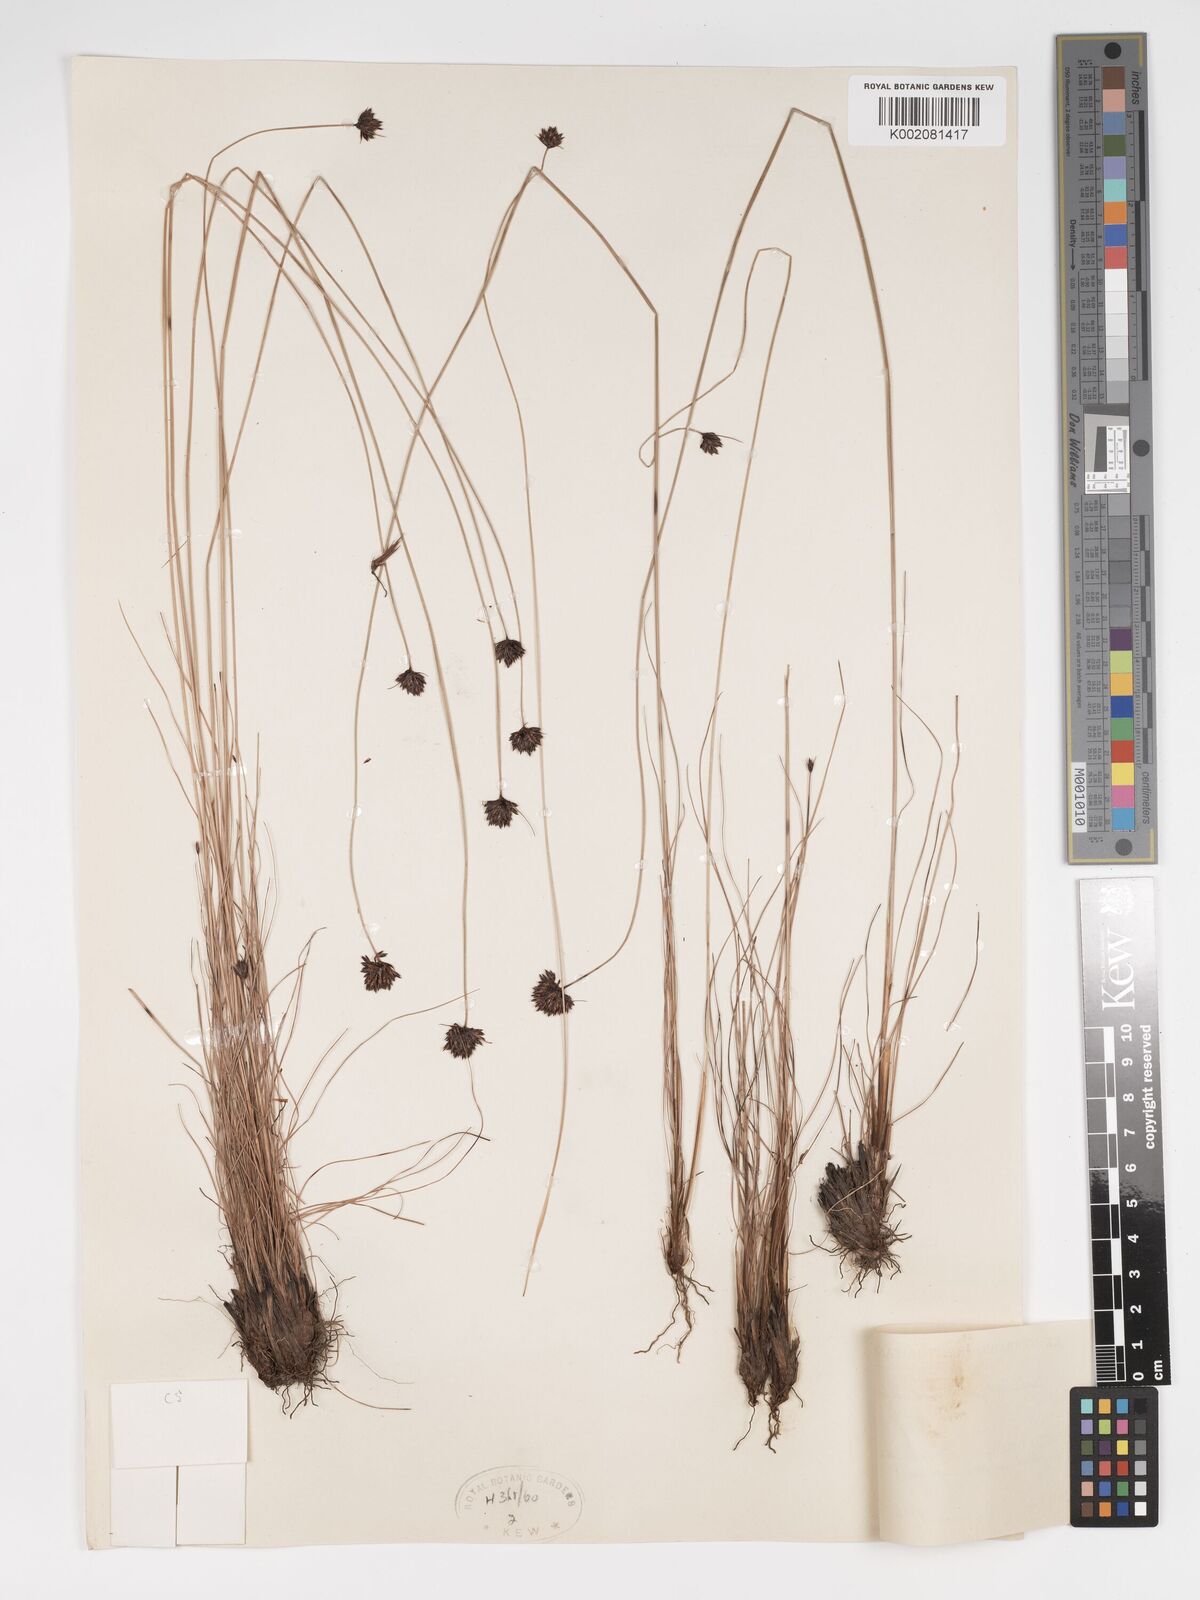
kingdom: Plantae
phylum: Tracheophyta
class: Liliopsida
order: Poales
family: Cyperaceae
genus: Bulbostylis
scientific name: Bulbostylis filamentosa
